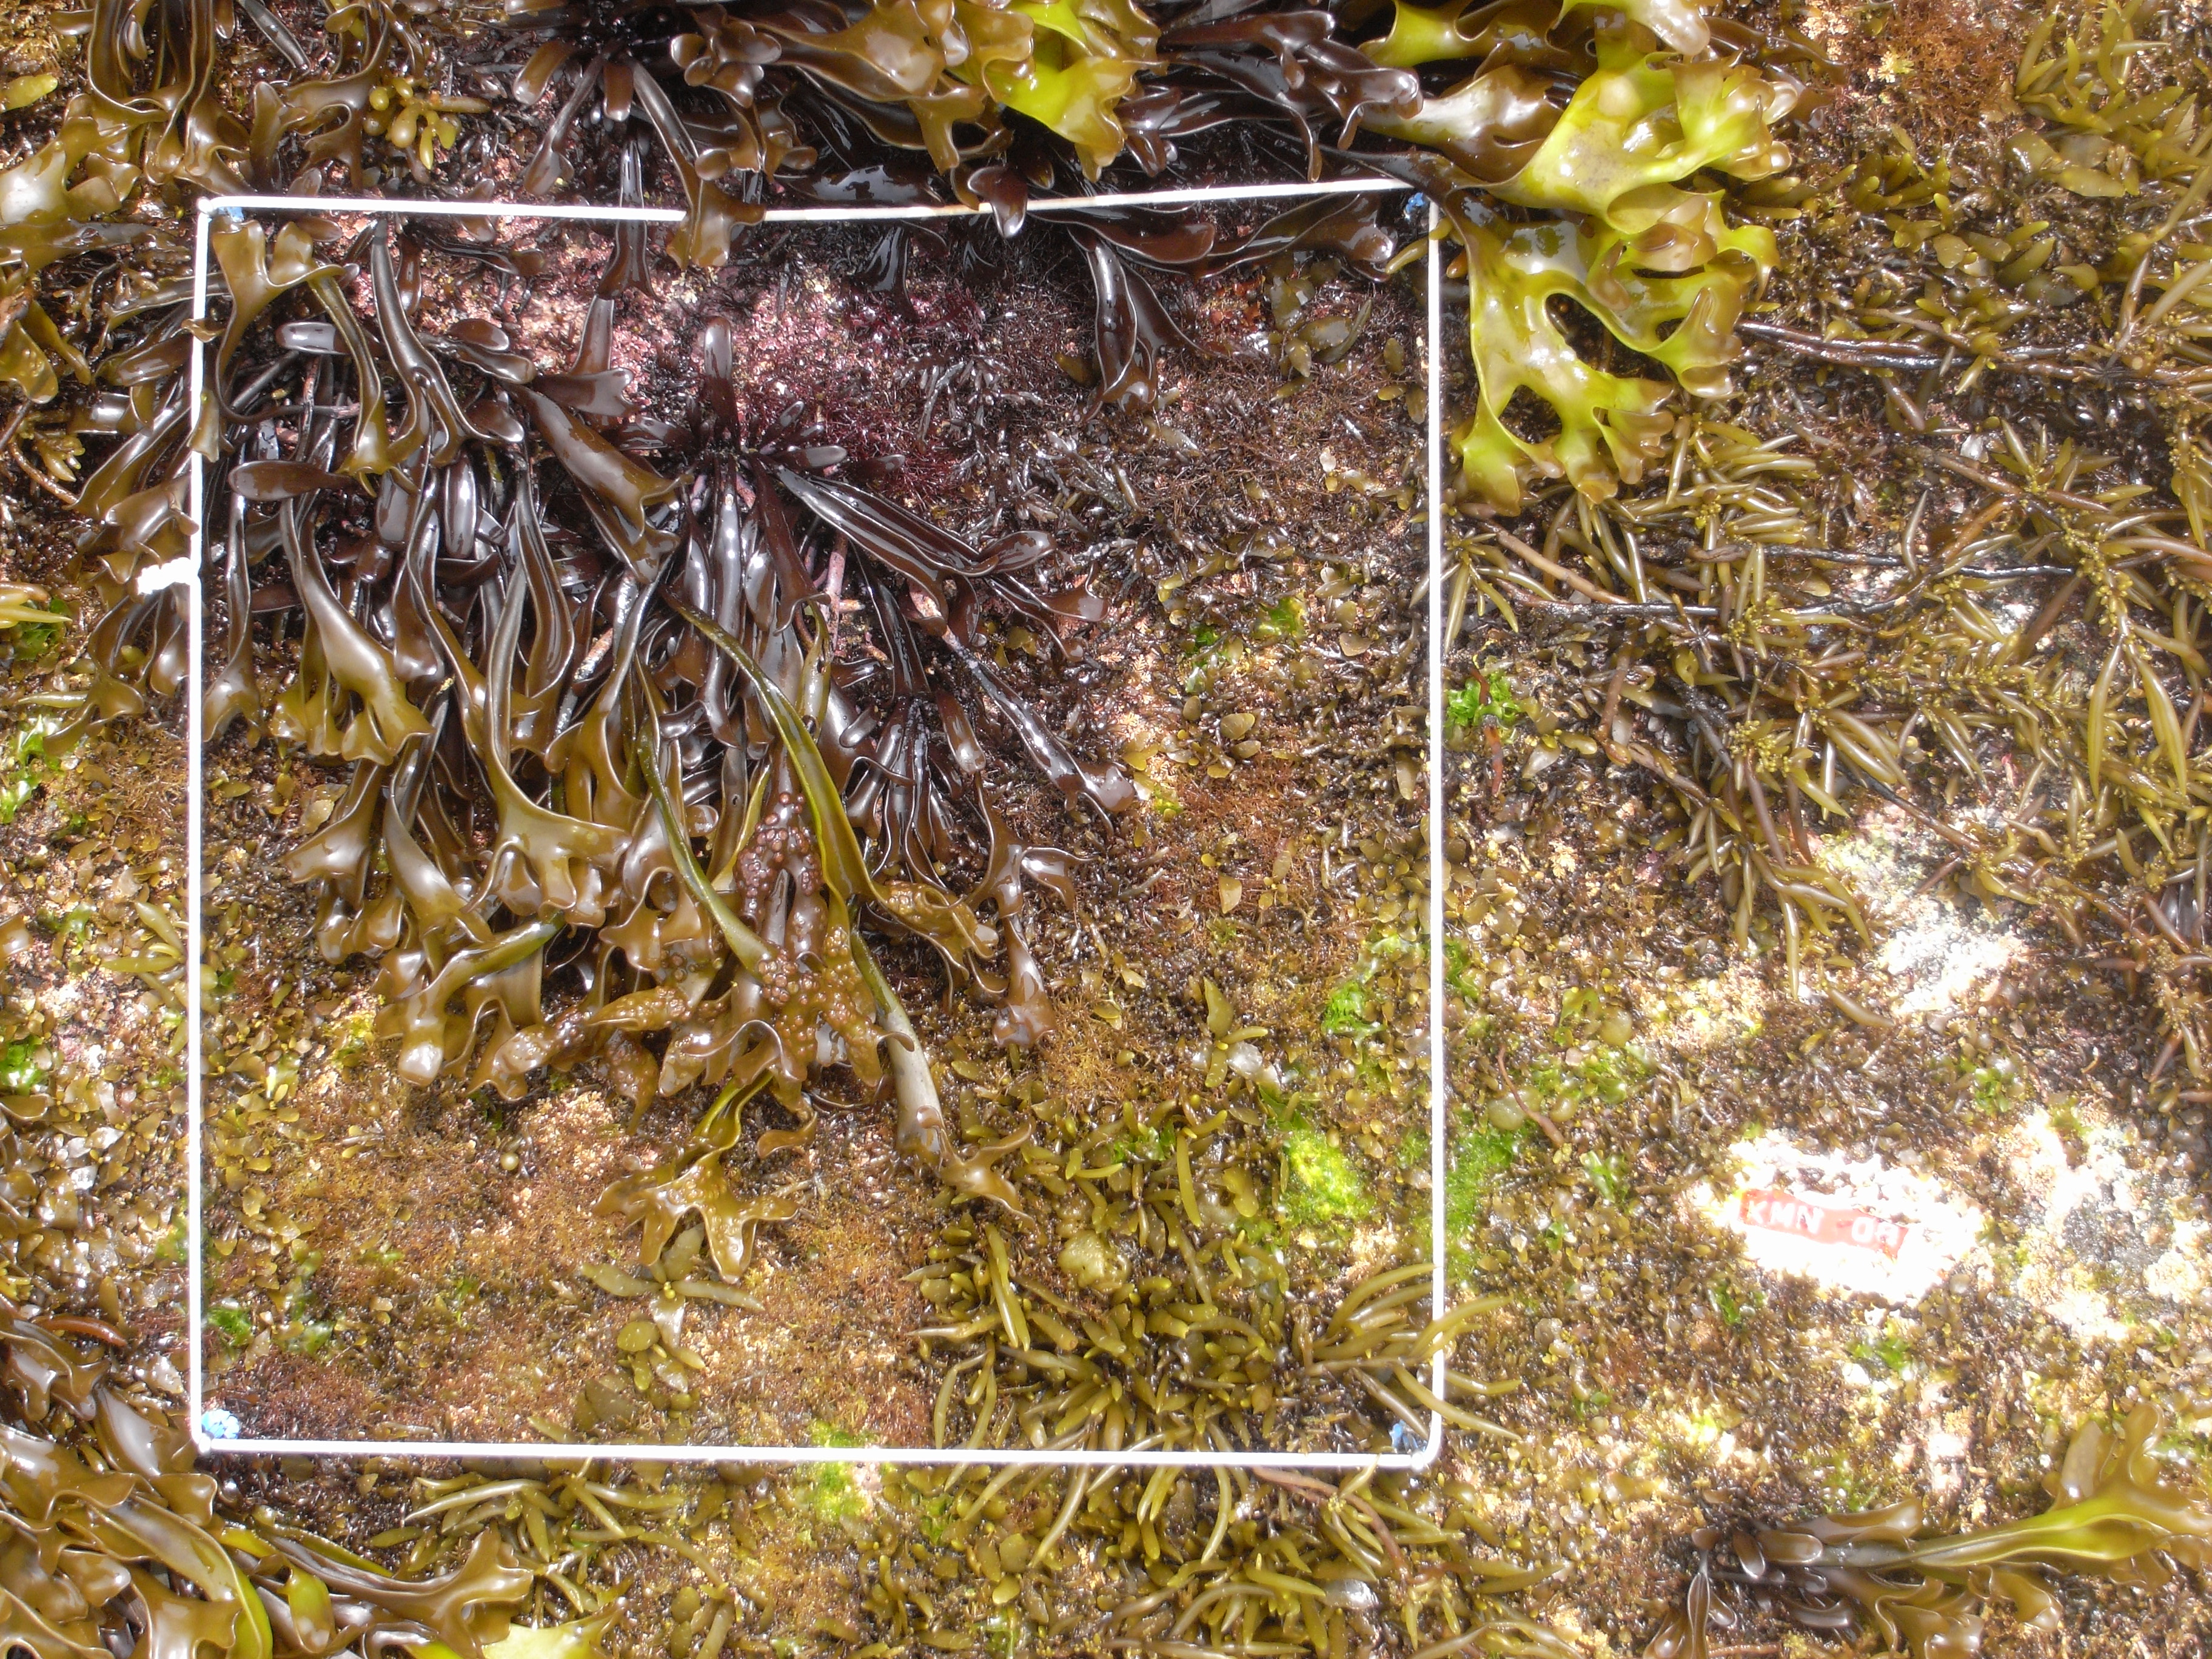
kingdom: Chromista
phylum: Ochrophyta
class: Phaeophyceae
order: Fucales
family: Sargassaceae
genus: Sargassum
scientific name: Sargassum fusiforme
